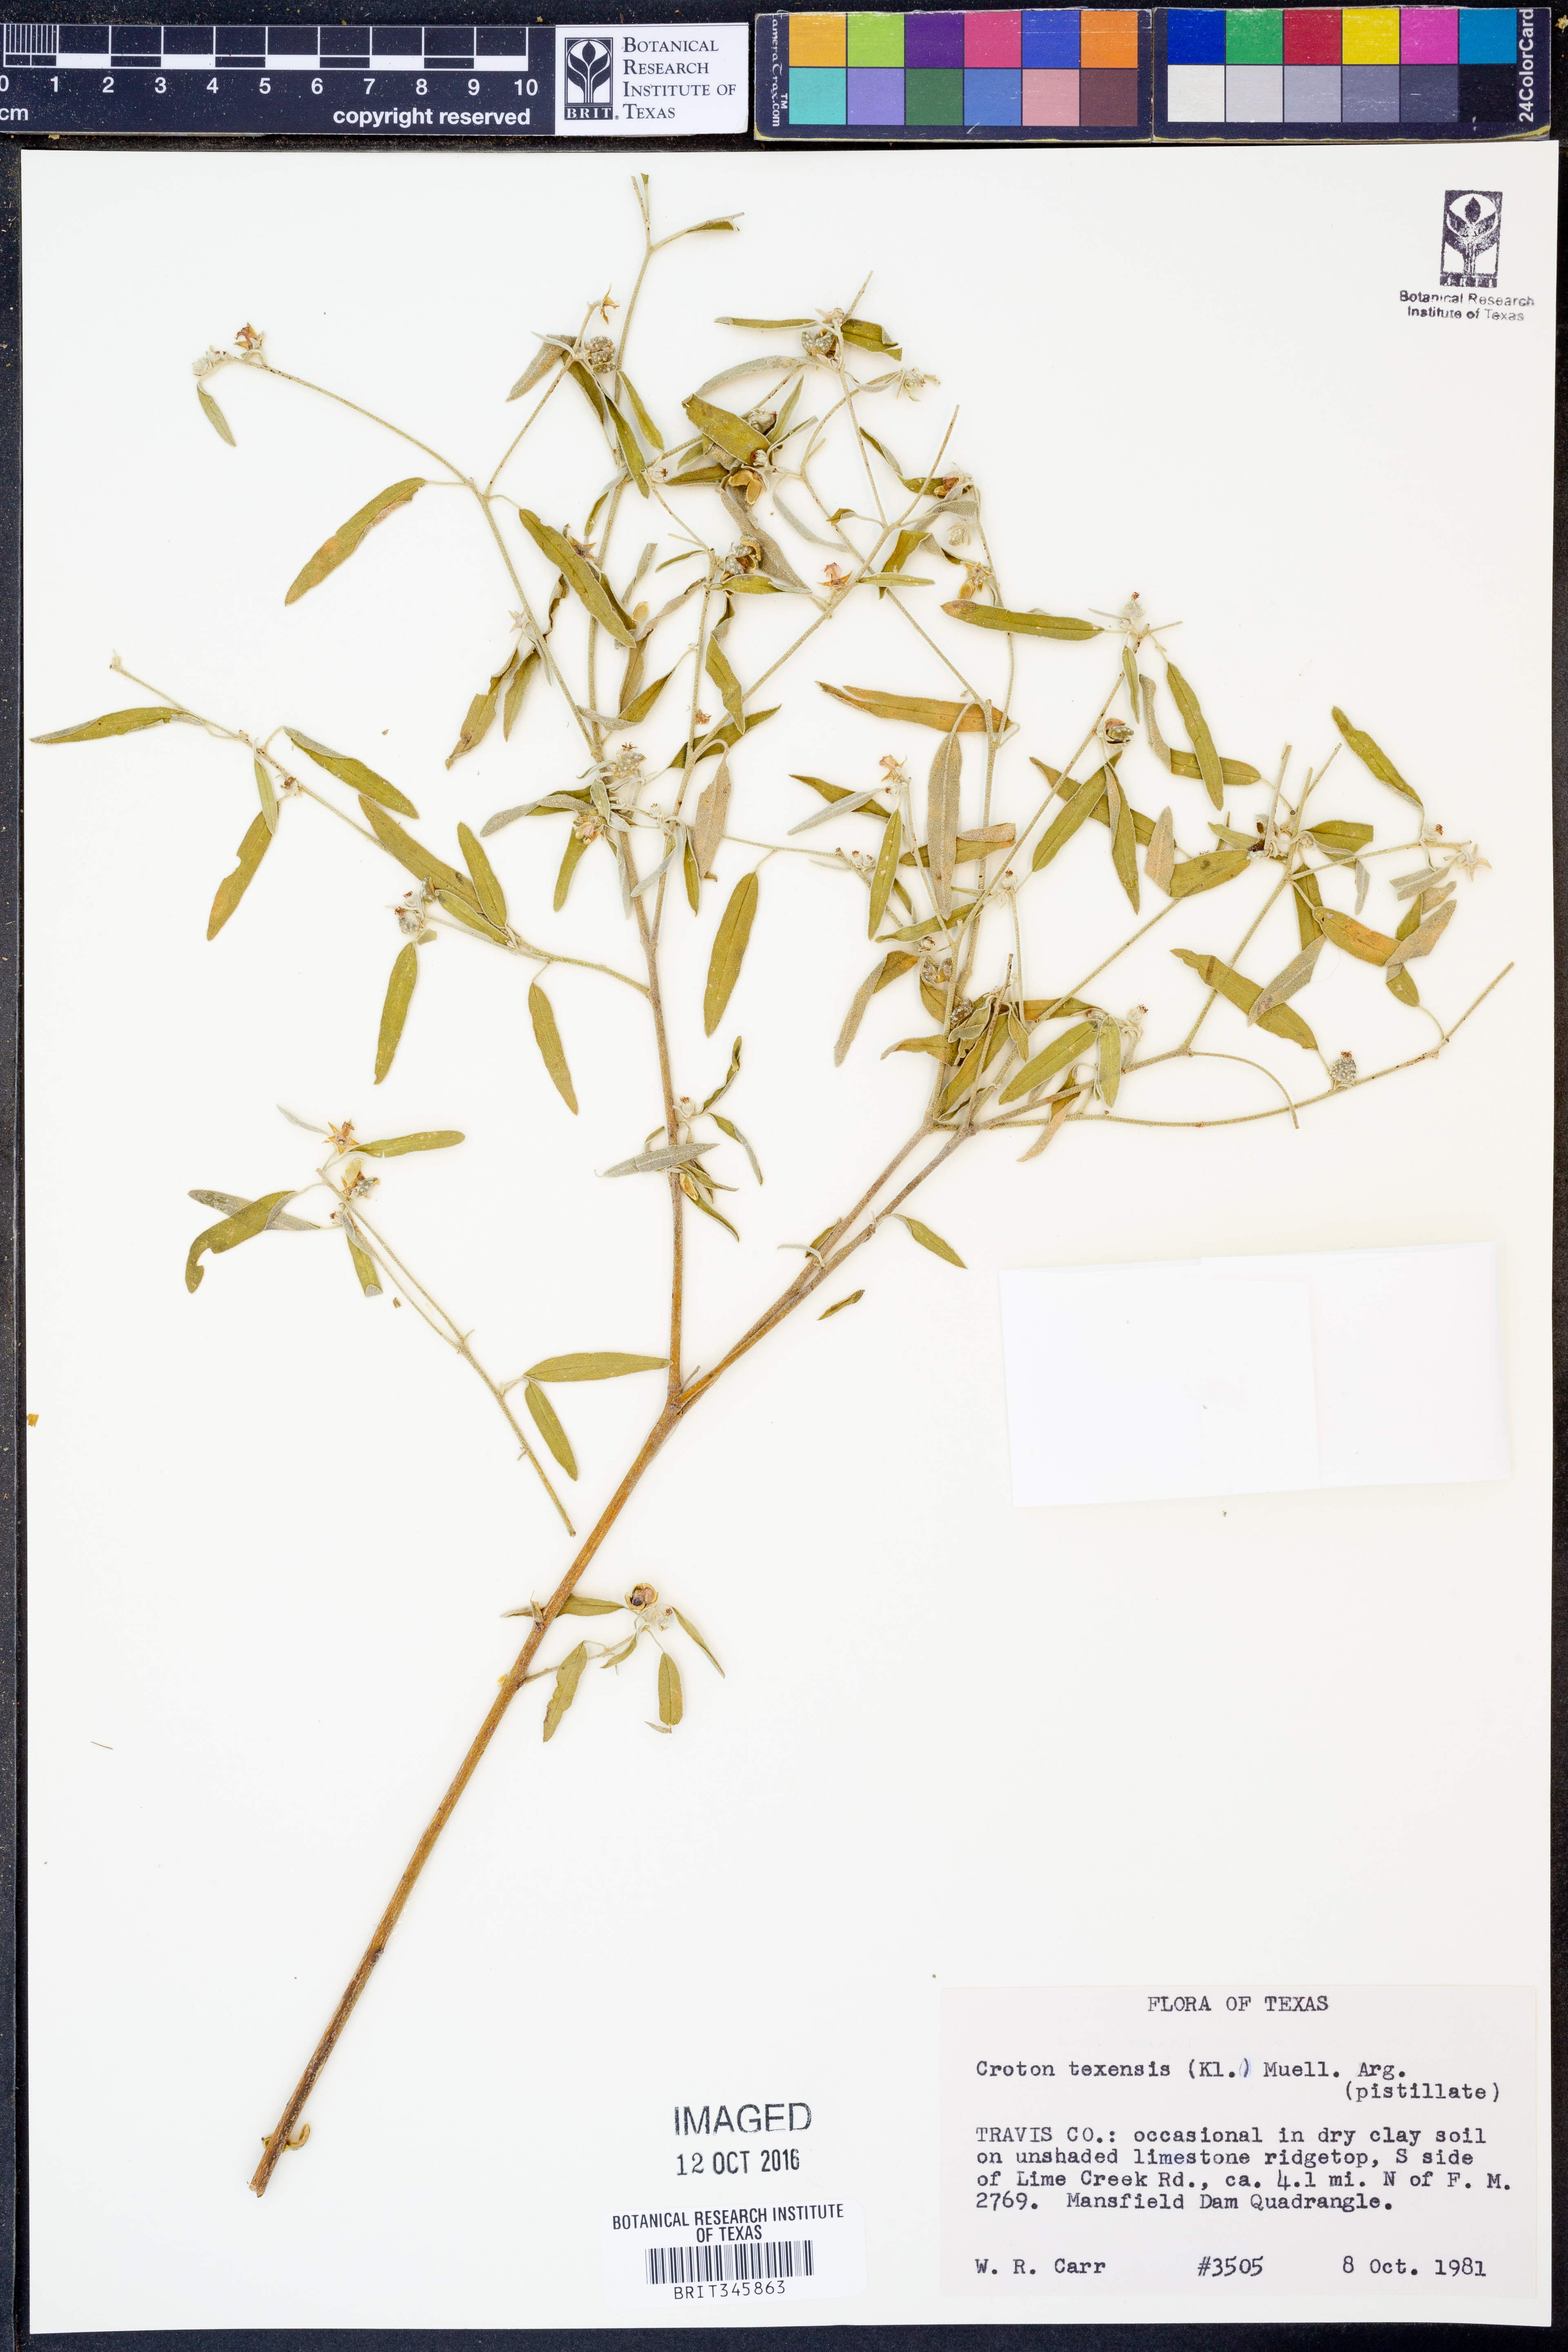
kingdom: Plantae
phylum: Tracheophyta
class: Magnoliopsida
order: Malpighiales
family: Euphorbiaceae
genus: Croton
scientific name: Croton texensis
